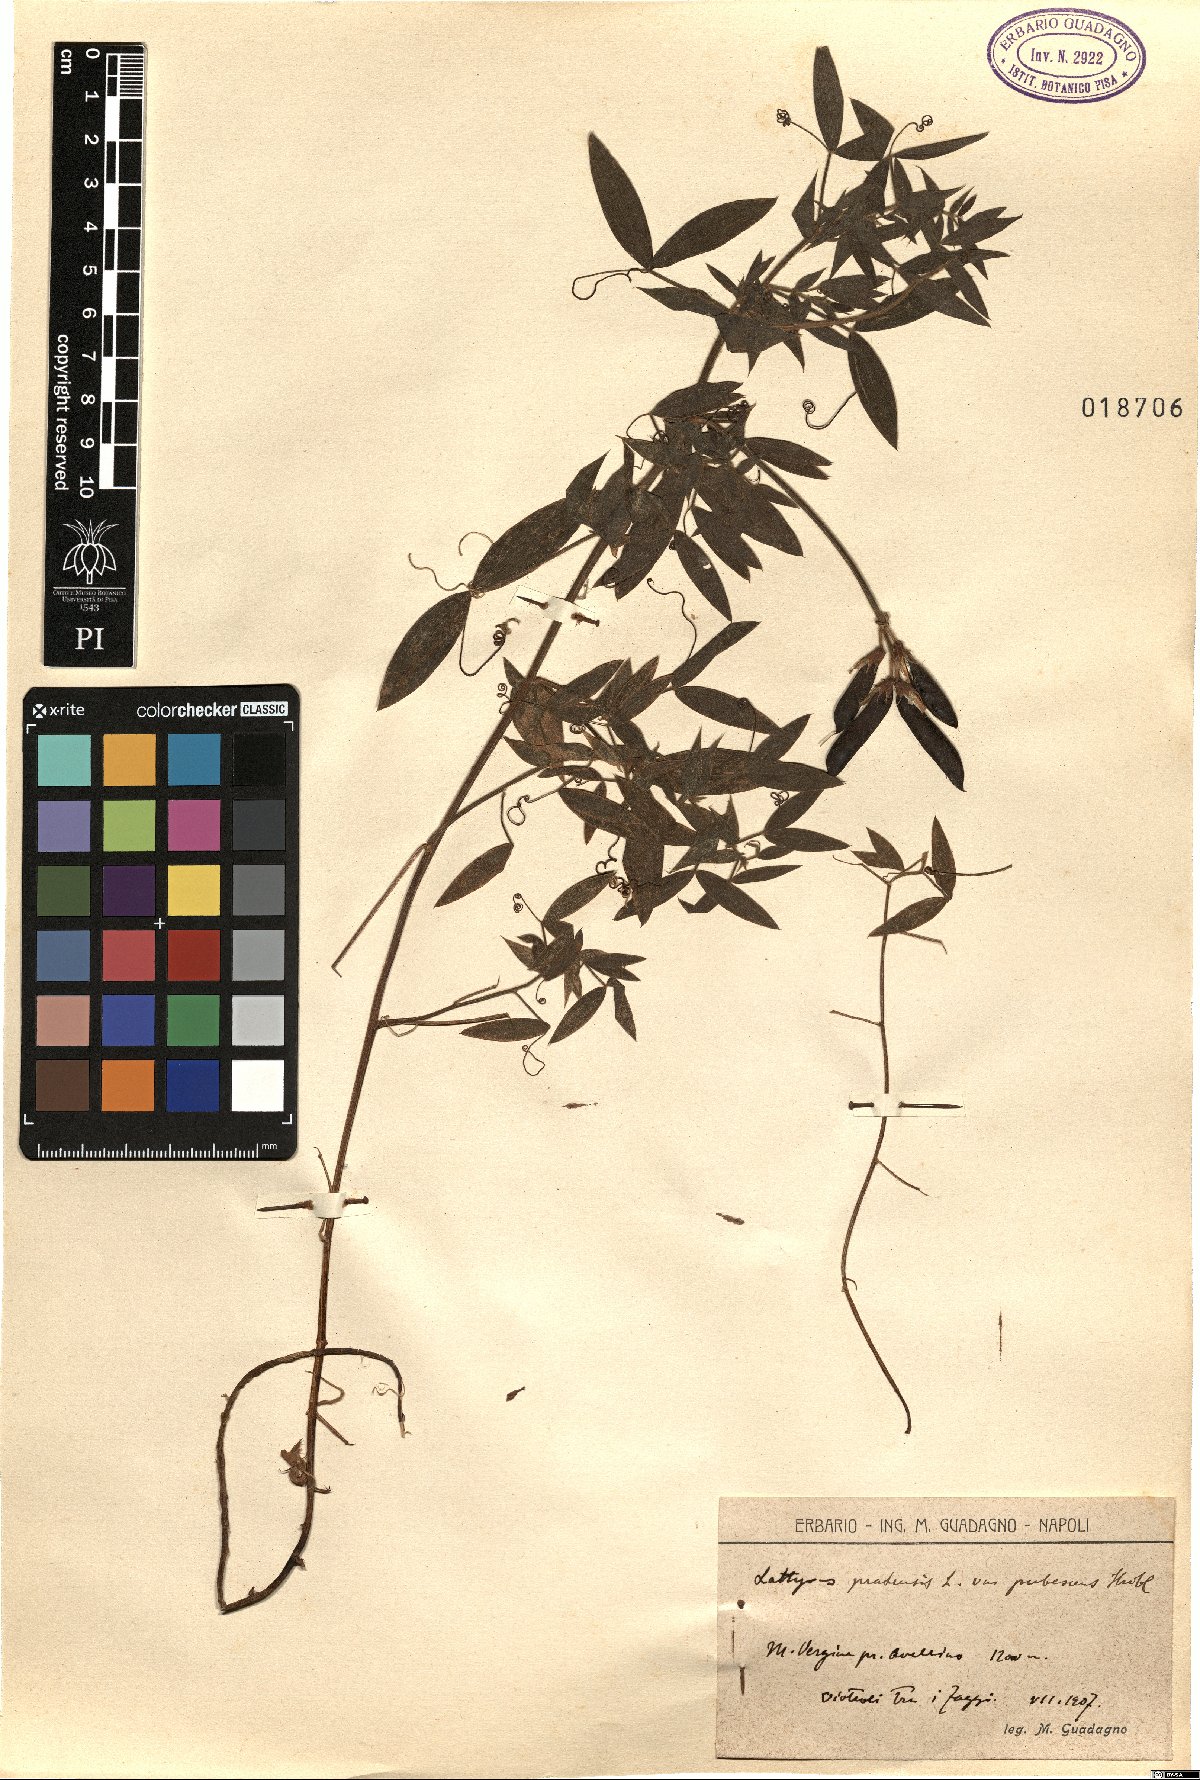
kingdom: Plantae
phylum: Tracheophyta
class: Magnoliopsida
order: Fabales
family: Fabaceae
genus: Lathyrus
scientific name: Lathyrus pratensis
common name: Meadow vetchling
